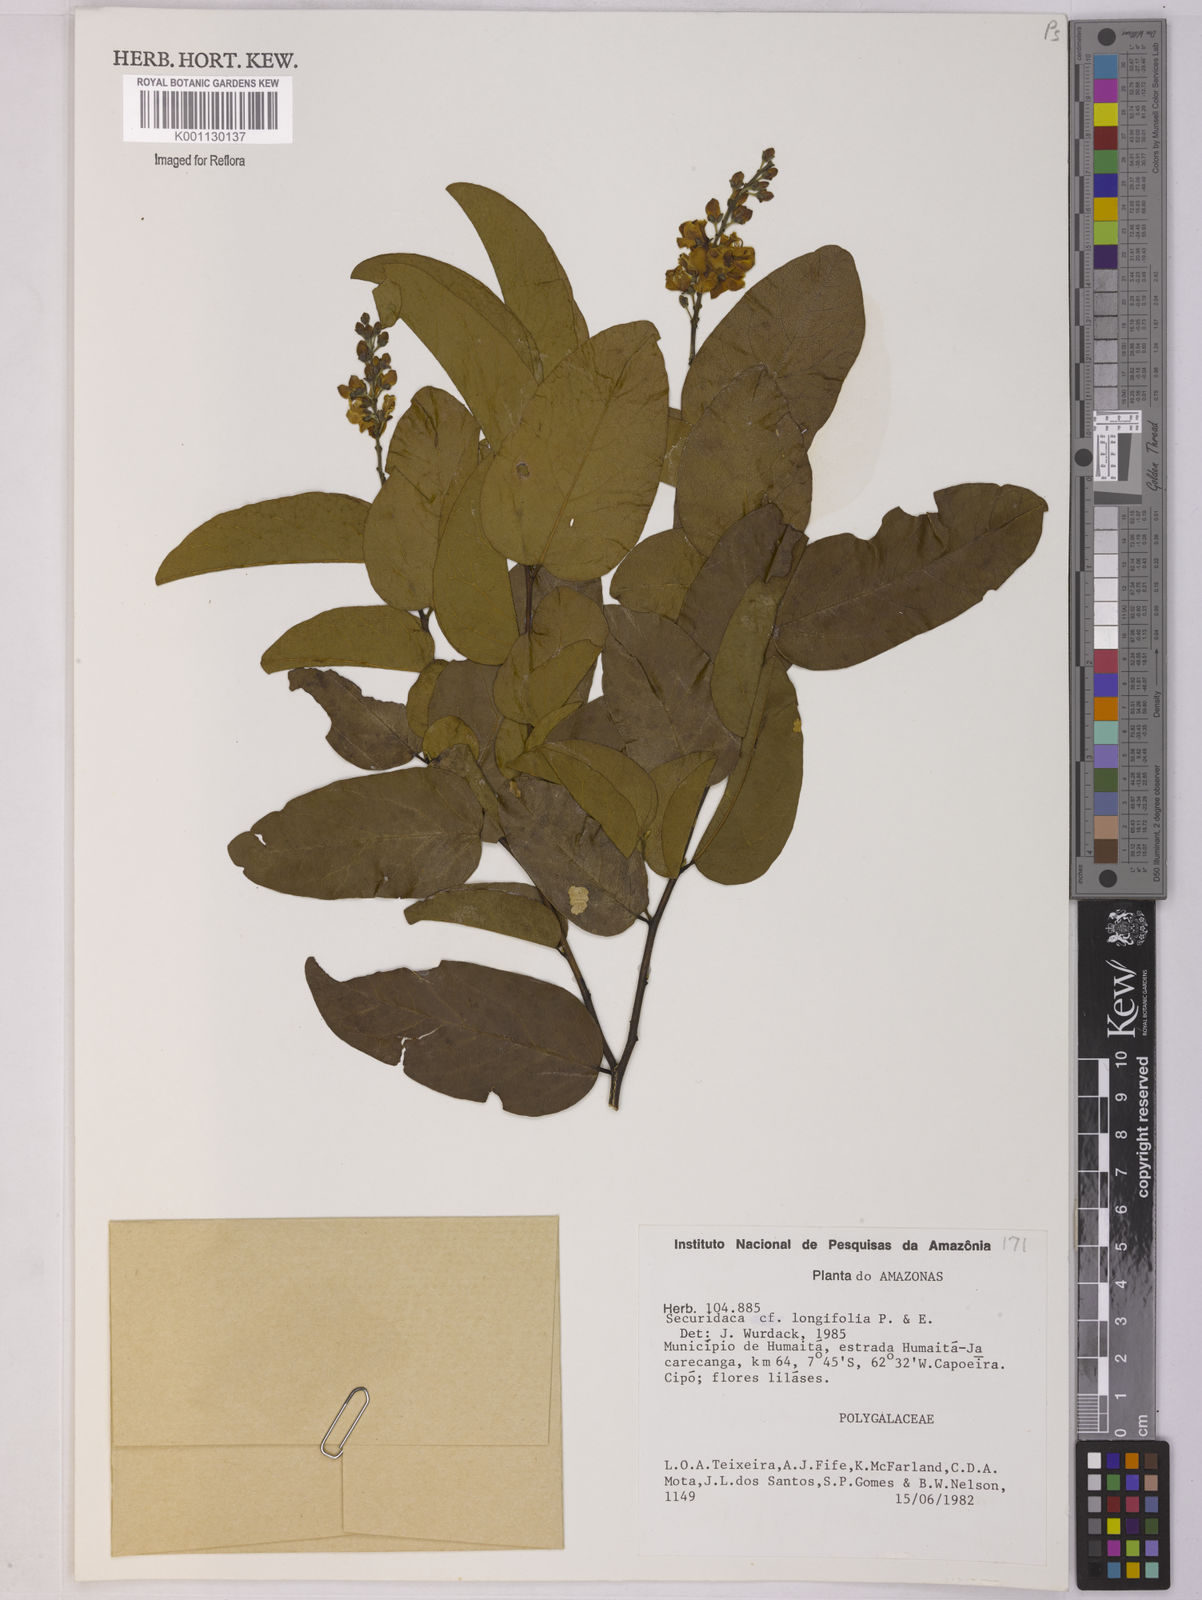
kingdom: Plantae
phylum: Tracheophyta
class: Magnoliopsida
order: Fabales
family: Polygalaceae
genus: Securidaca
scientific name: Securidaca longifolia
